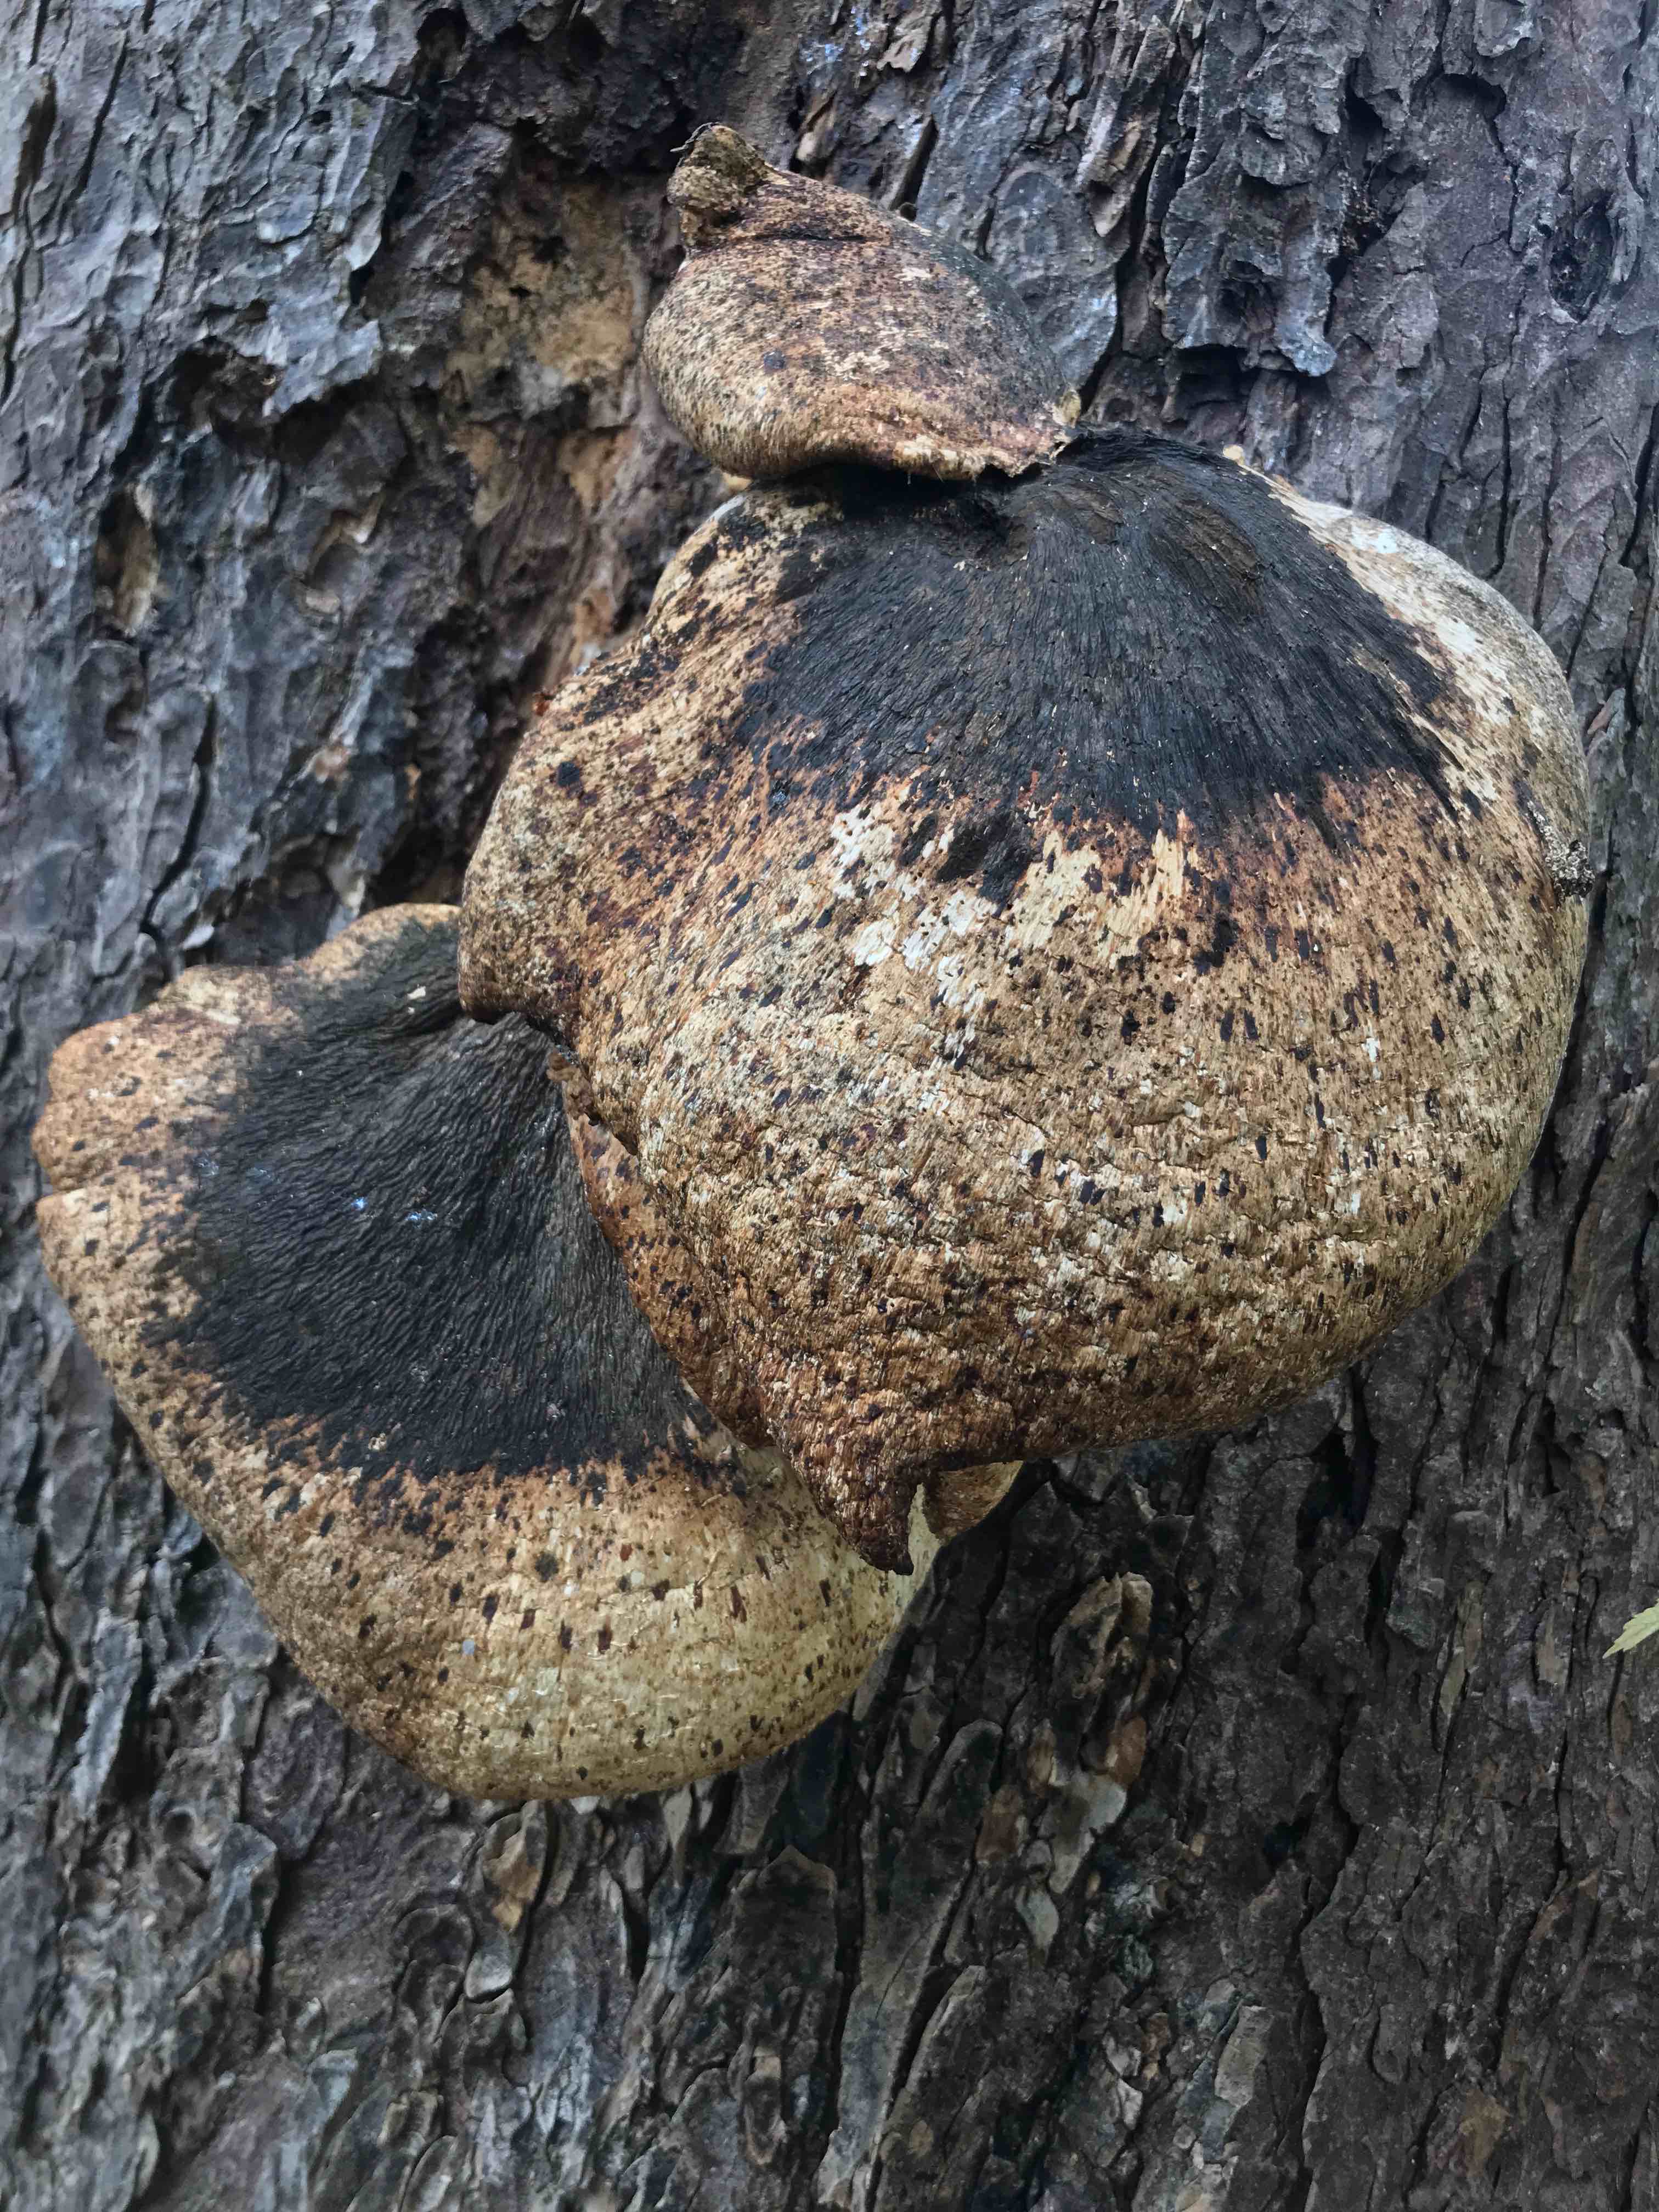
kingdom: Fungi
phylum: Basidiomycota
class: Agaricomycetes
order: Polyporales
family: Polyporaceae
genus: Cerioporus
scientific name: Cerioporus squamosus
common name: skællet stilkporesvamp
